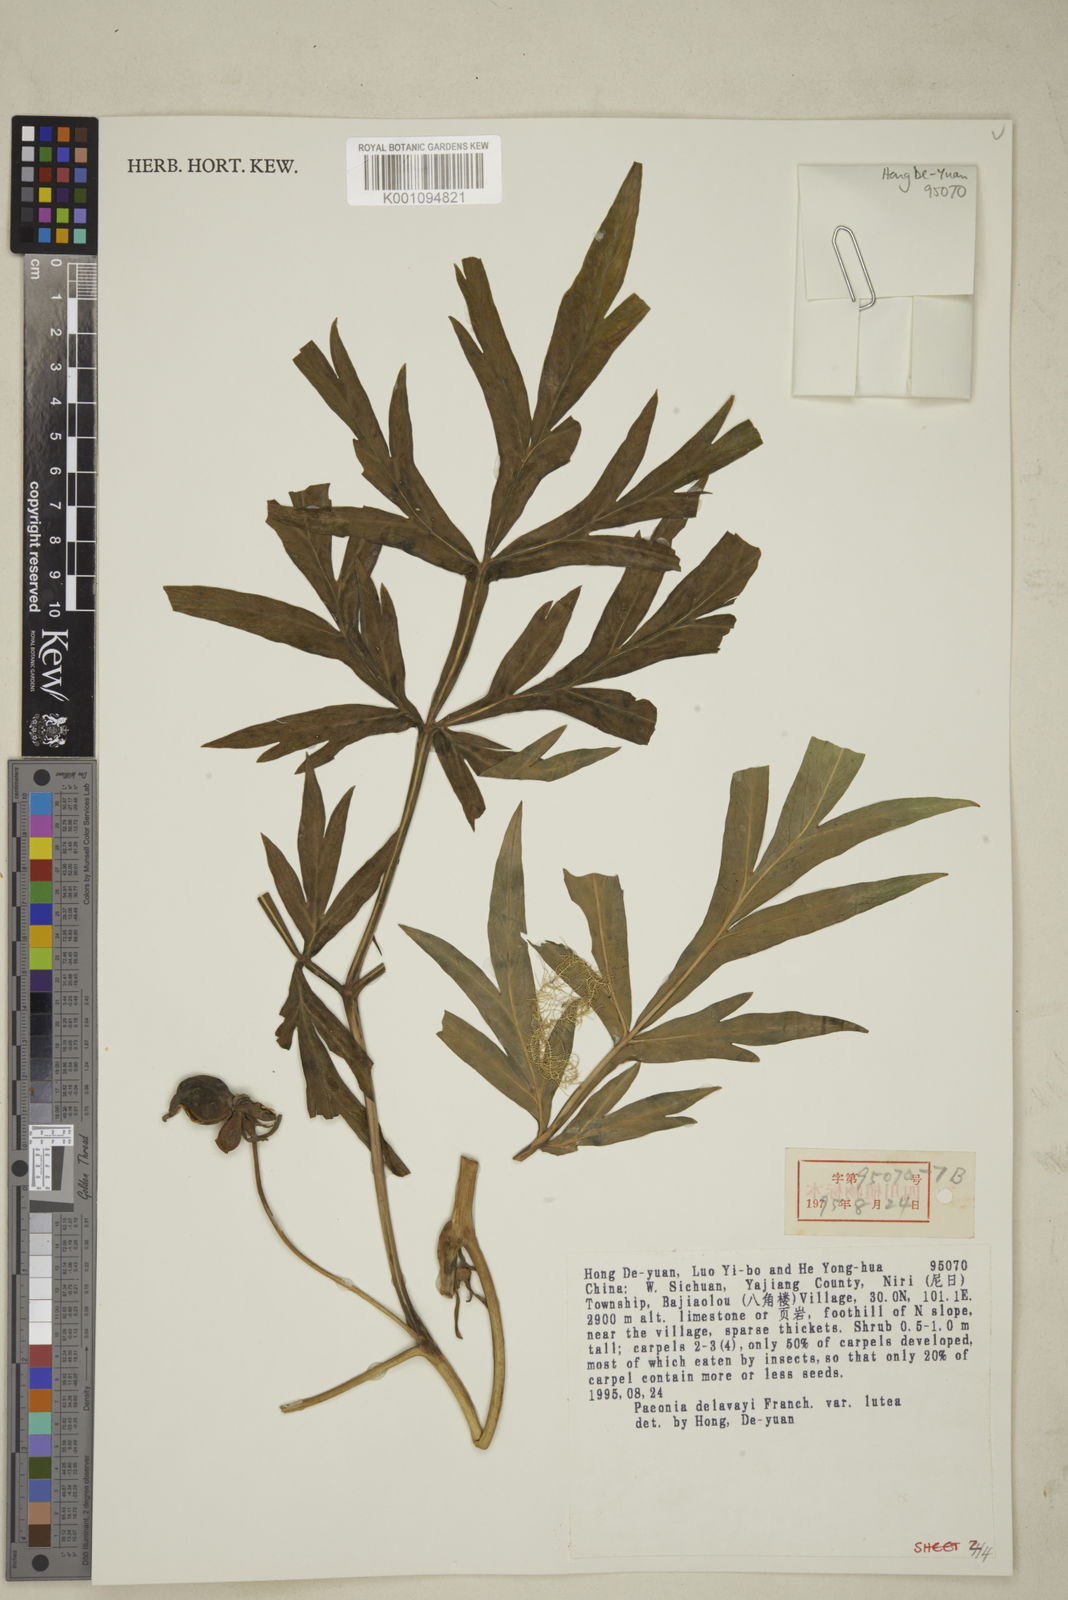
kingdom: Plantae
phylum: Tracheophyta
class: Magnoliopsida
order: Saxifragales
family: Paeoniaceae
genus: Paeonia
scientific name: Paeonia delavayi
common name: Dian mu dan
